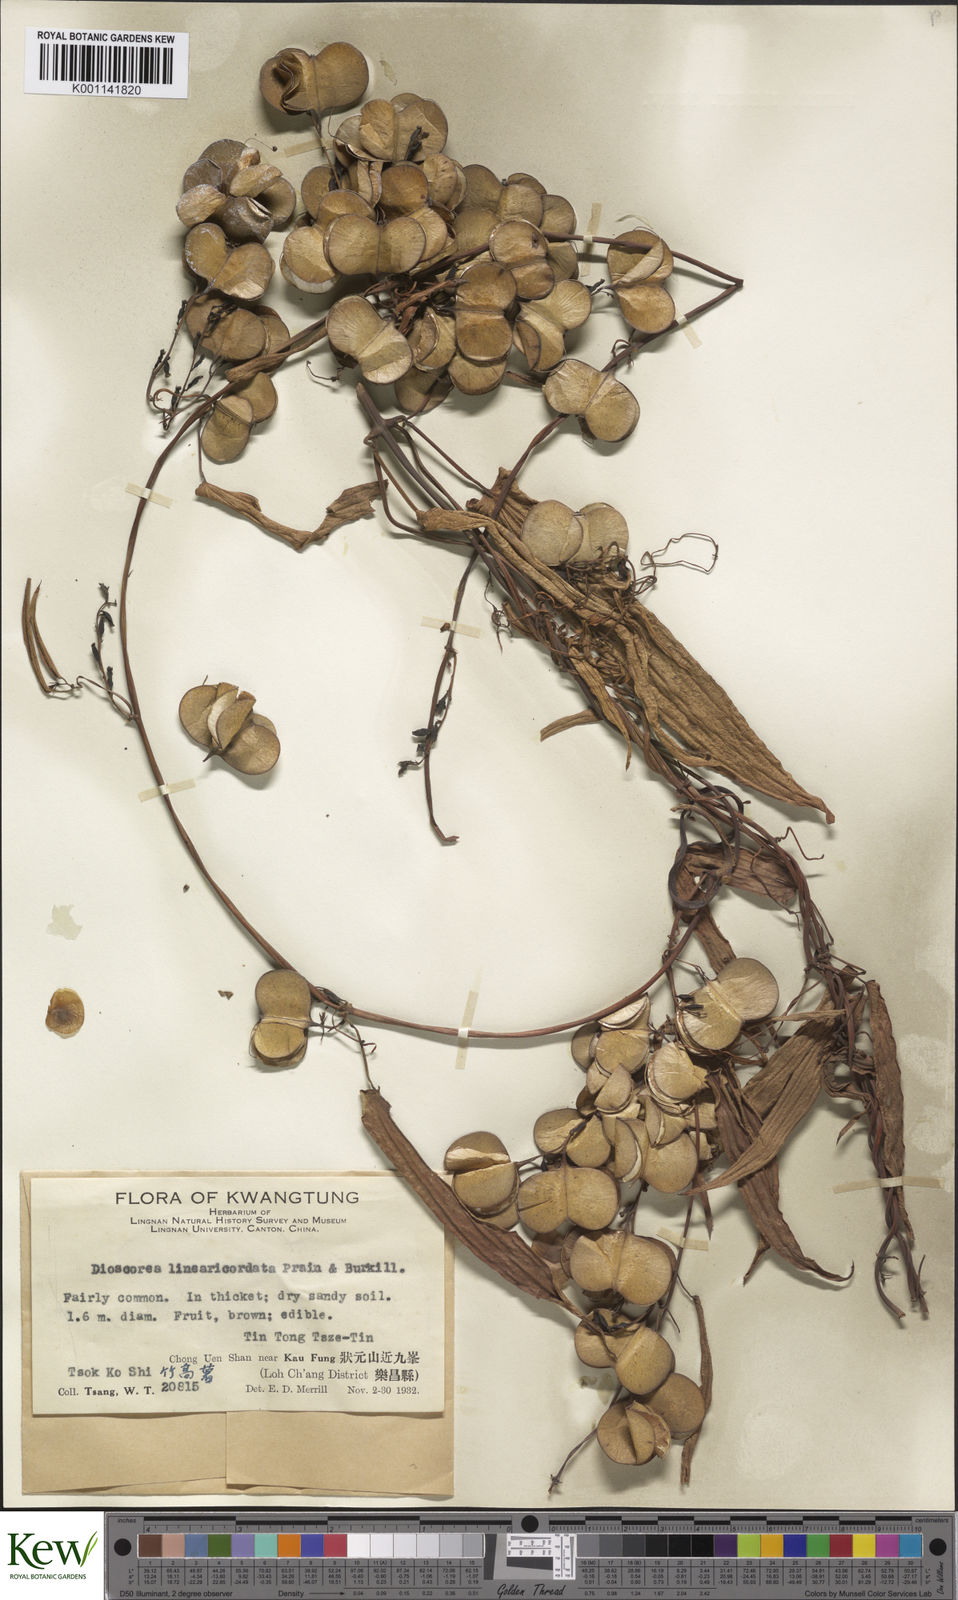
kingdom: Plantae
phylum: Tracheophyta
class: Liliopsida
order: Dioscoreales
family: Dioscoreaceae
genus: Dioscorea
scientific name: Dioscorea linearicordata
